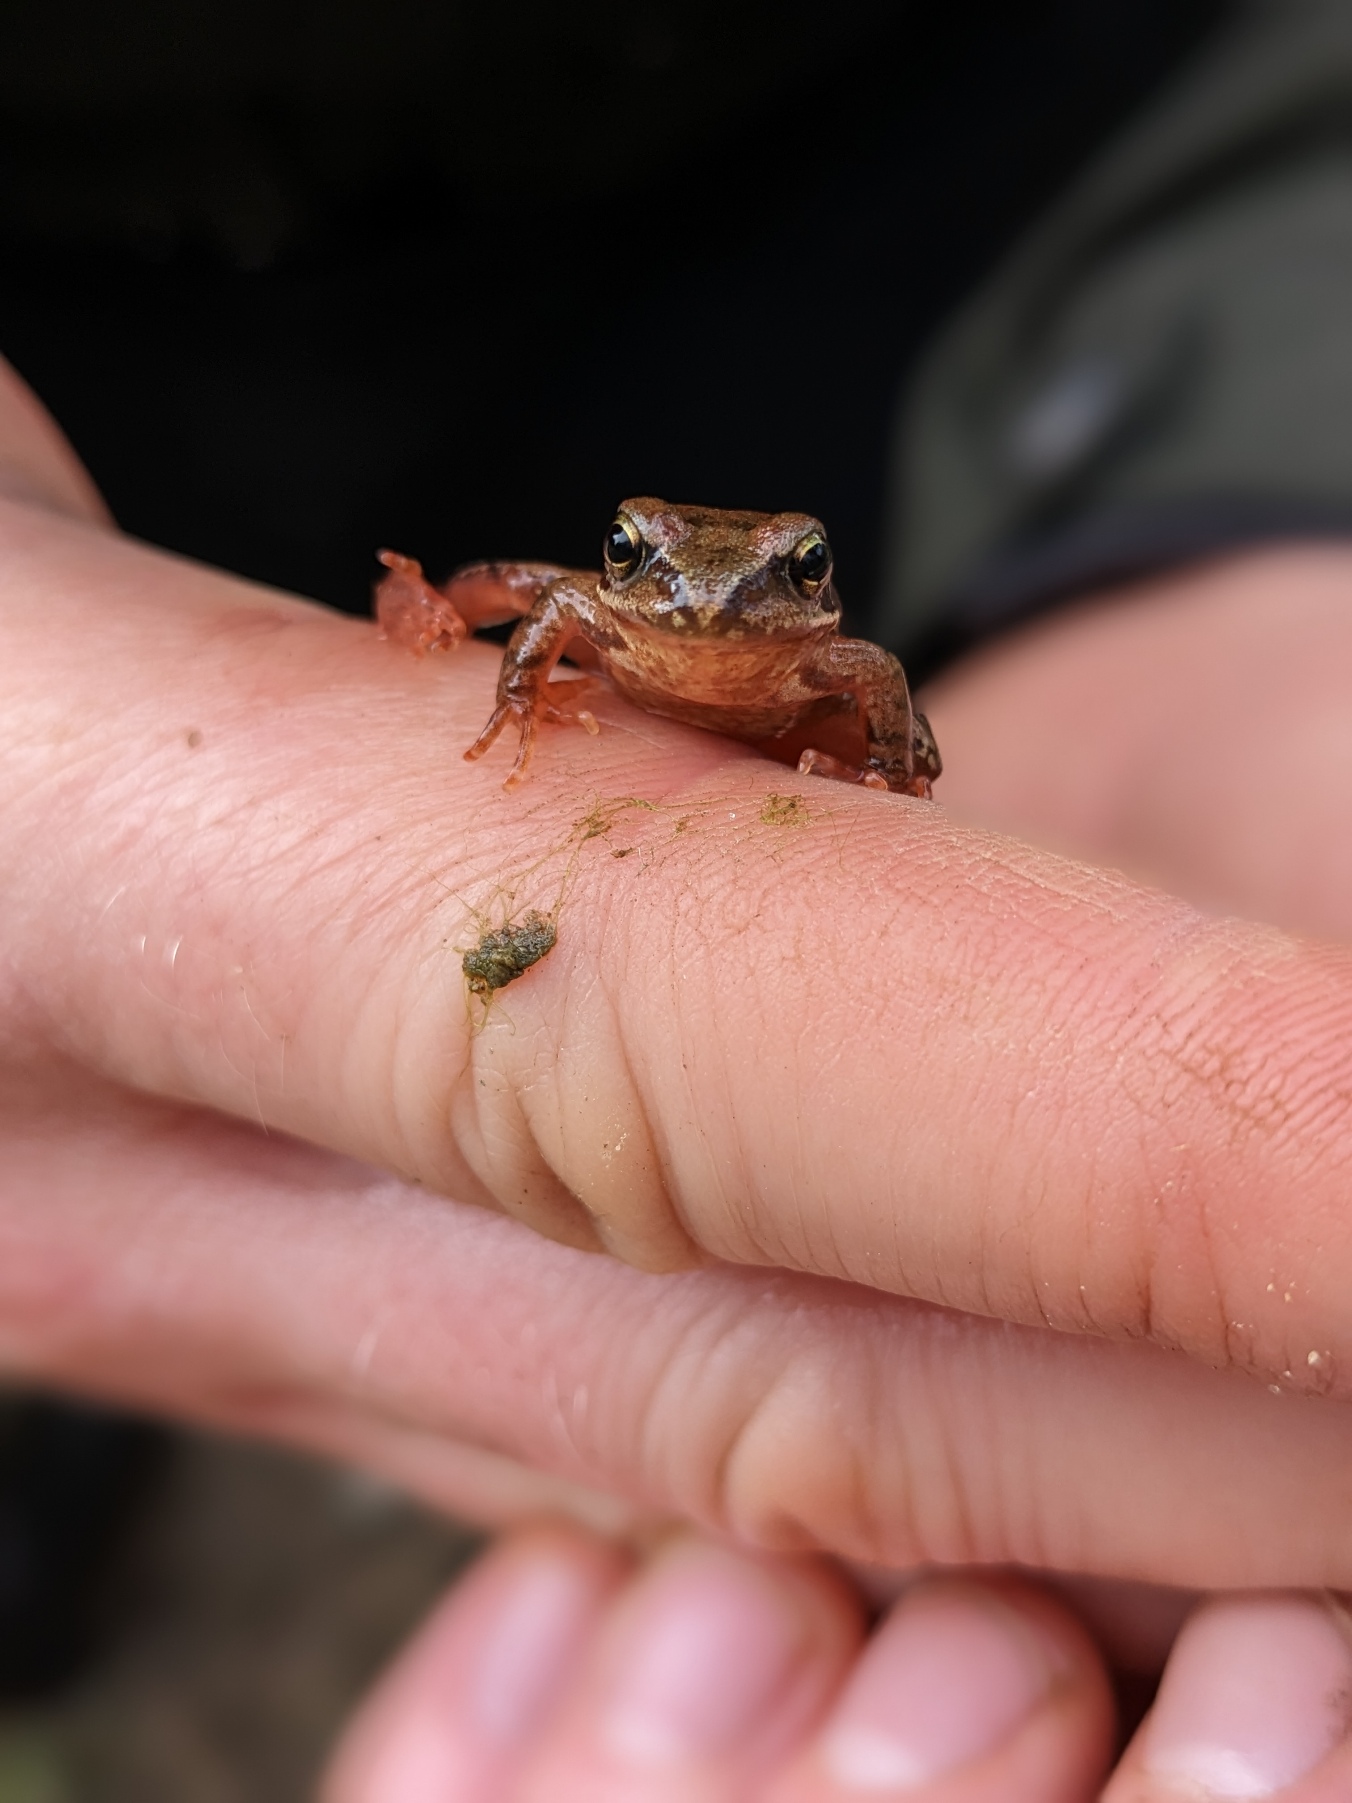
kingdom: Animalia
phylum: Chordata
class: Amphibia
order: Anura
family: Ranidae
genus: Rana
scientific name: Rana temporaria
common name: Butsnudet frø
